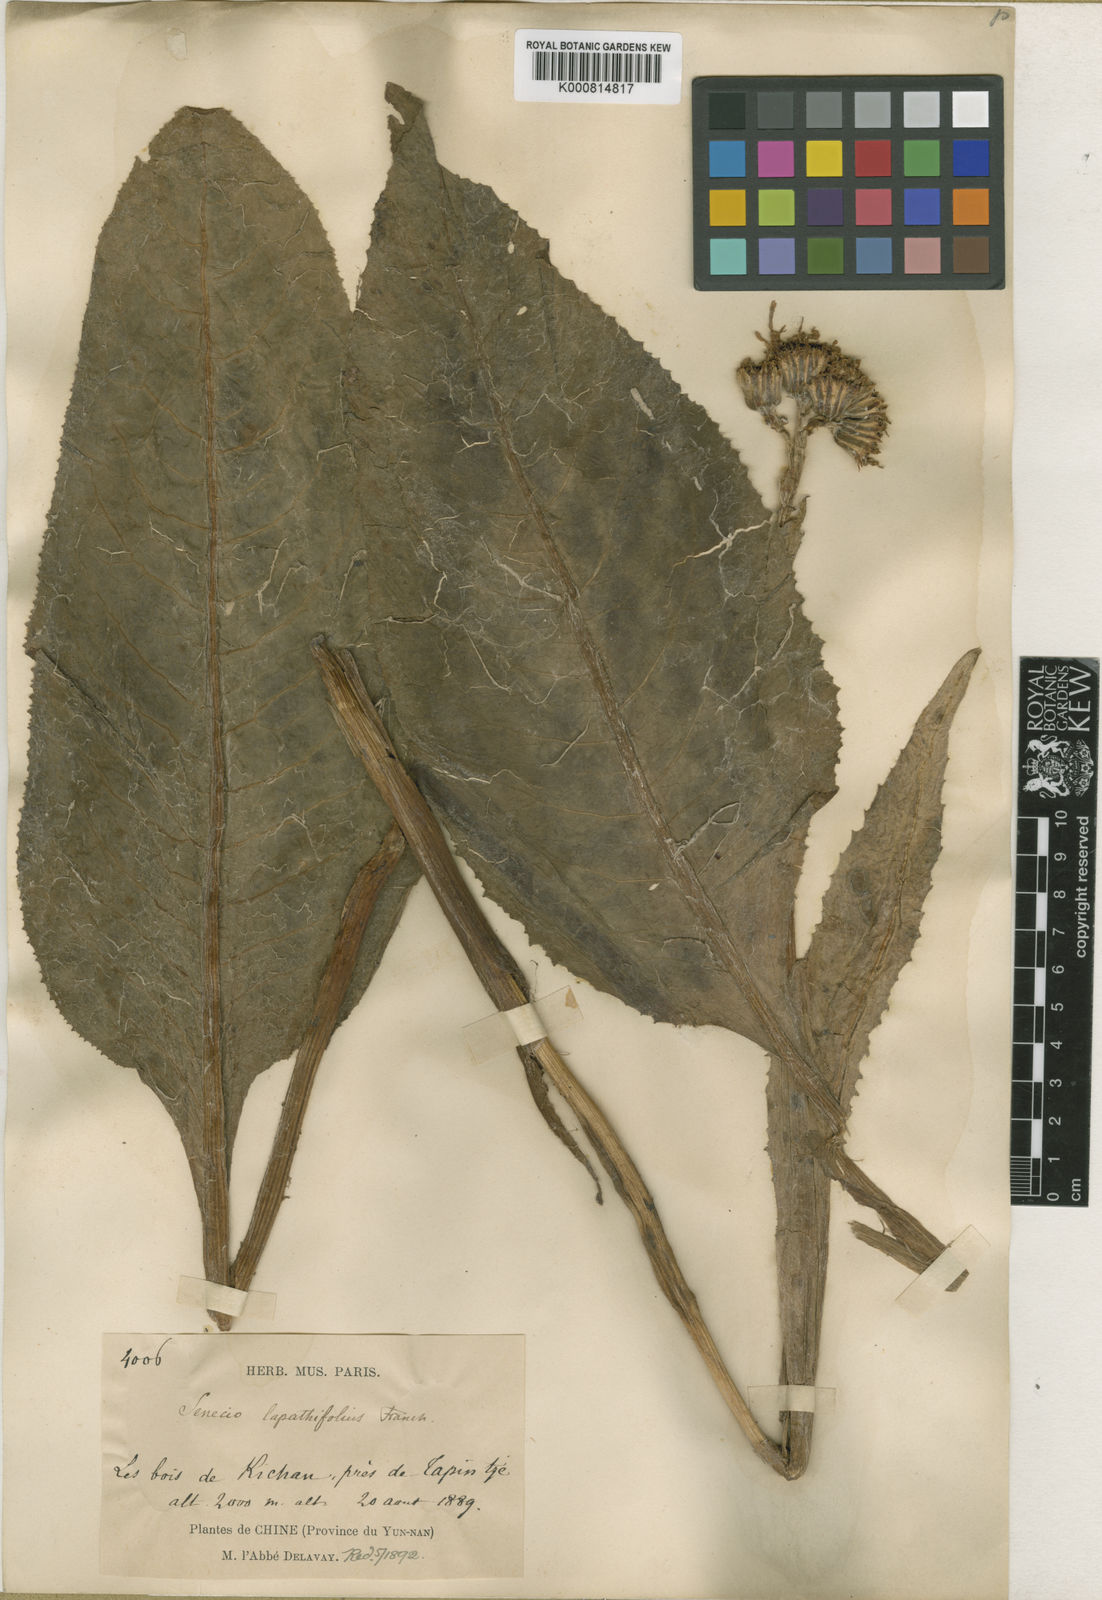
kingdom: Plantae
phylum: Tracheophyta
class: Magnoliopsida
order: Asterales
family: Asteraceae
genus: Ligularia
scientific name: Ligularia lapathifolia
